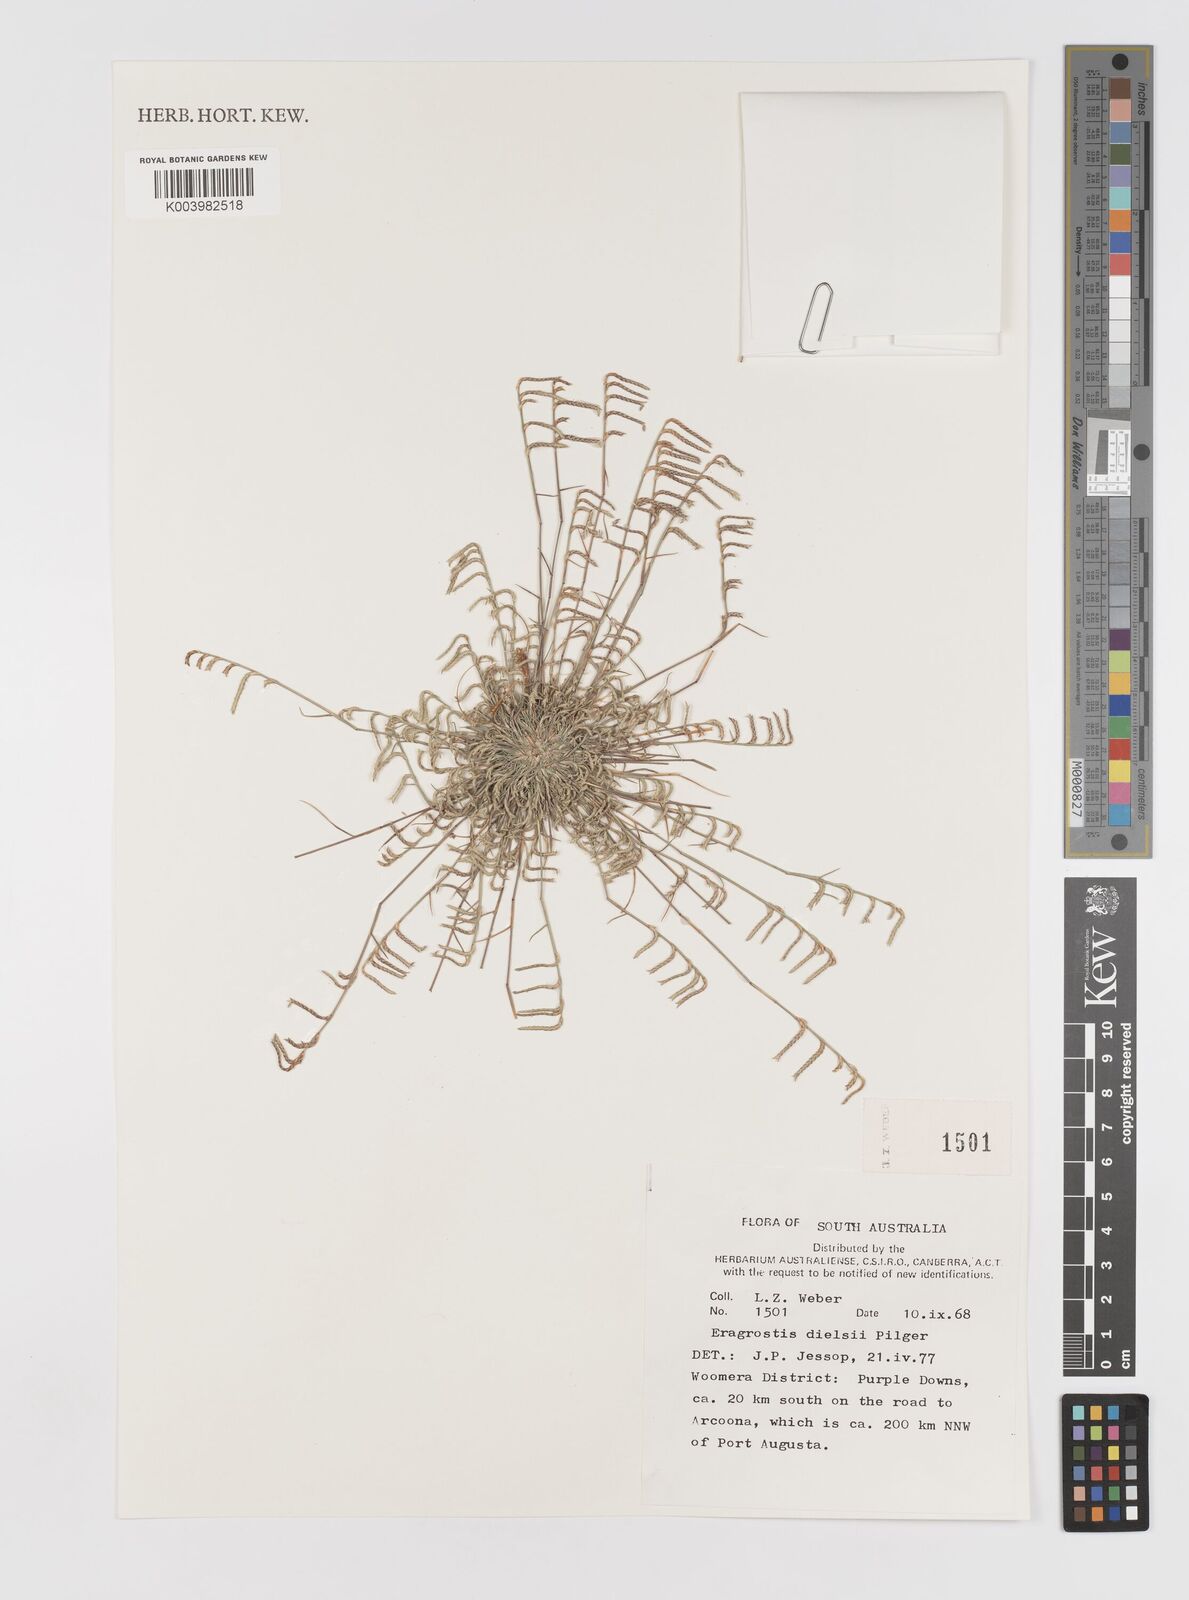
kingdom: Plantae
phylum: Tracheophyta
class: Liliopsida
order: Poales
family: Poaceae
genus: Eragrostis
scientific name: Eragrostis dielsii
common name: Lovegrass
